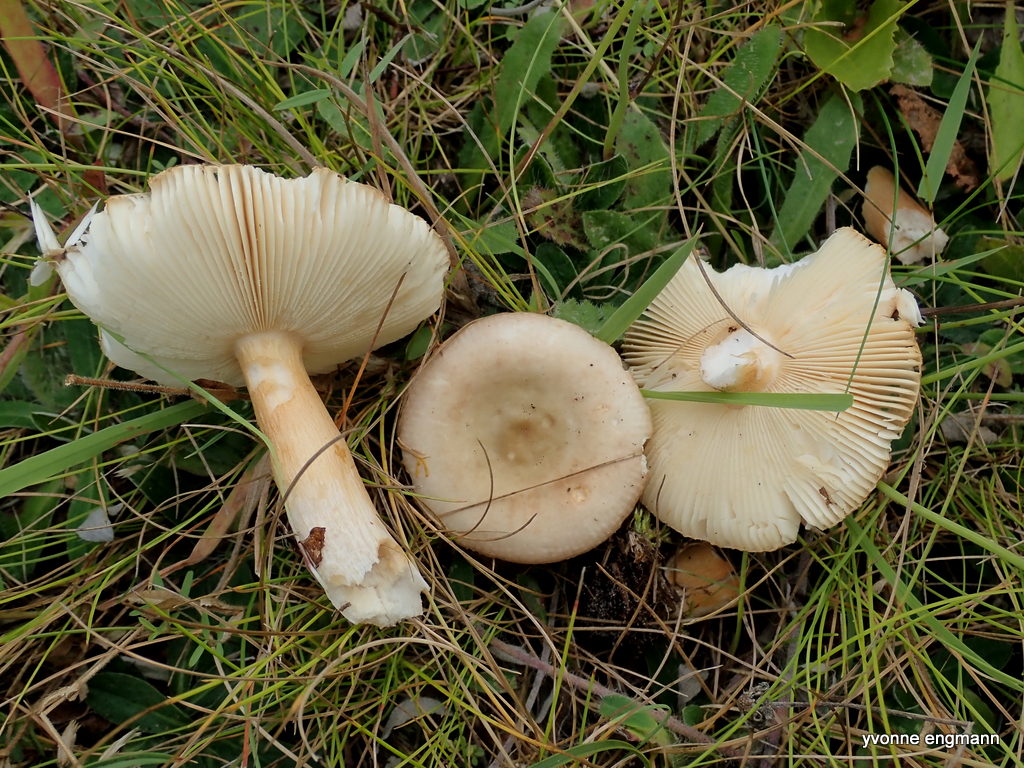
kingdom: Fungi
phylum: Basidiomycota
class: Agaricomycetes
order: Russulales
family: Russulaceae
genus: Russula
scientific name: Russula versicolor
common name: foranderlig skørhat
